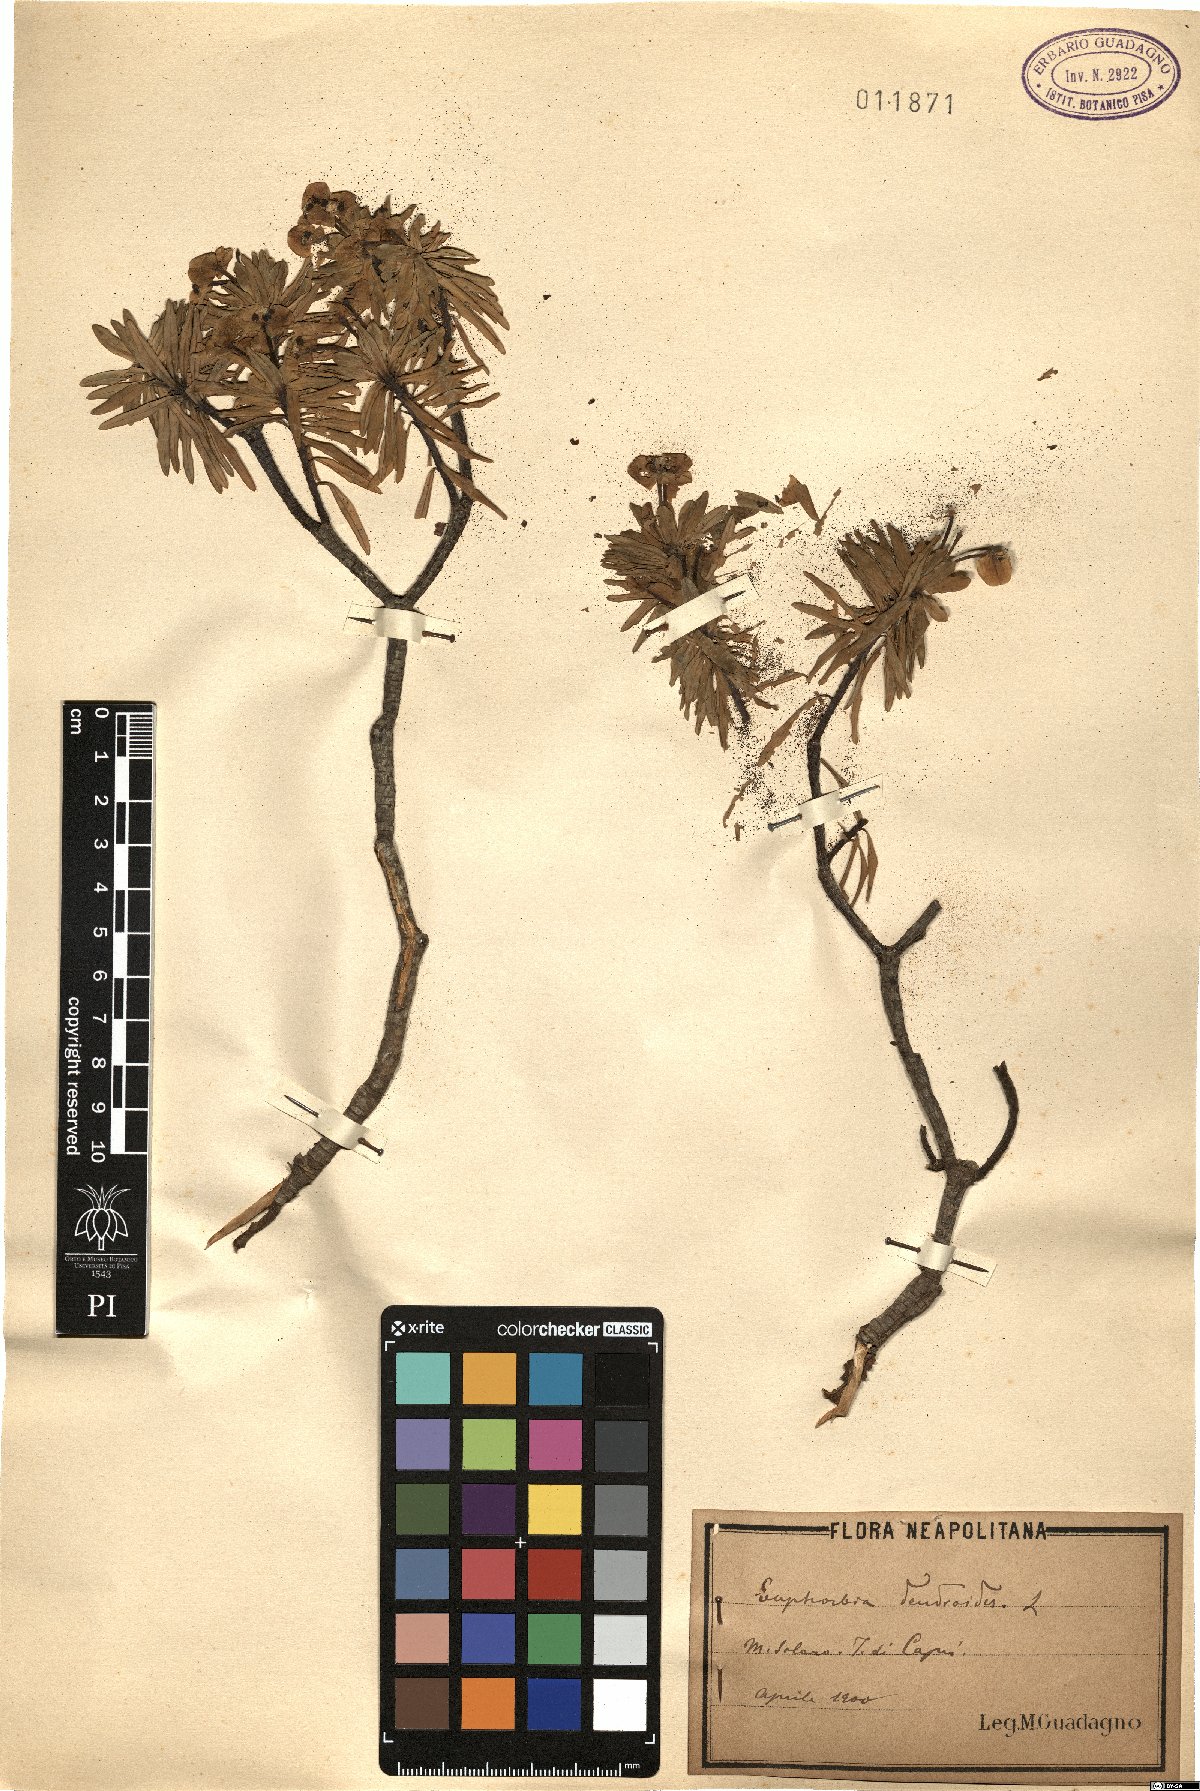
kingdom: Plantae
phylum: Tracheophyta
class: Magnoliopsida
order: Malpighiales
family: Euphorbiaceae
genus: Euphorbia
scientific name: Euphorbia dendroides
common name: Tree spurge
